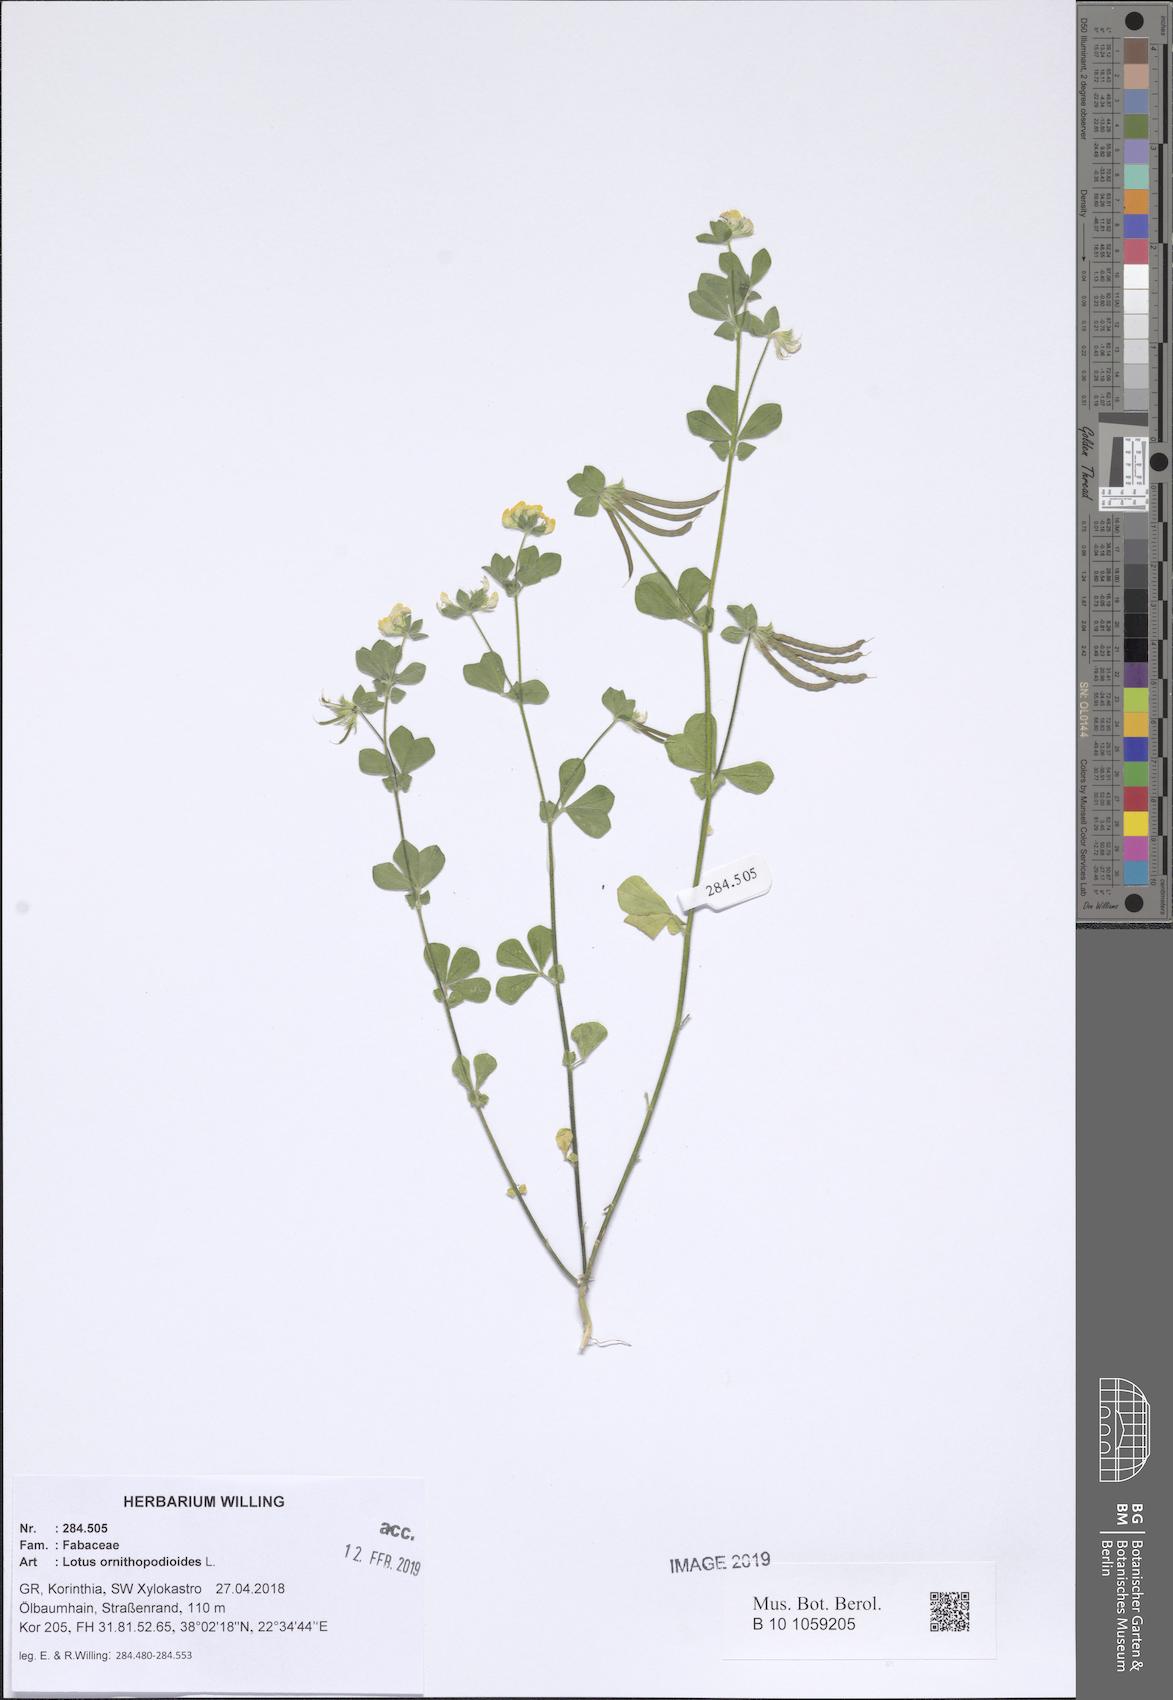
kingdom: Plantae
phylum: Tracheophyta
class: Magnoliopsida
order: Fabales
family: Fabaceae
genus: Lotus
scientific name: Lotus ornithopodioides
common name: Southern bird's-foot trefoil
